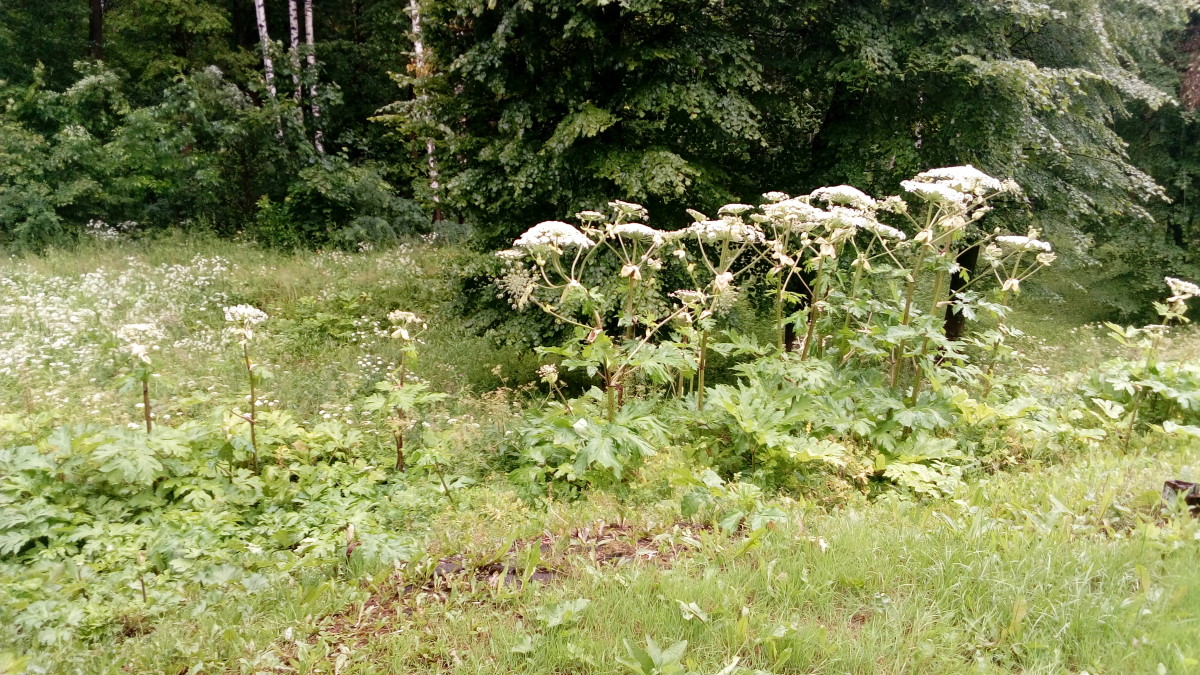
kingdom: Plantae
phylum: Tracheophyta
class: Magnoliopsida
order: Apiales
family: Apiaceae
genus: Heracleum
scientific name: Heracleum sosnowskyi
